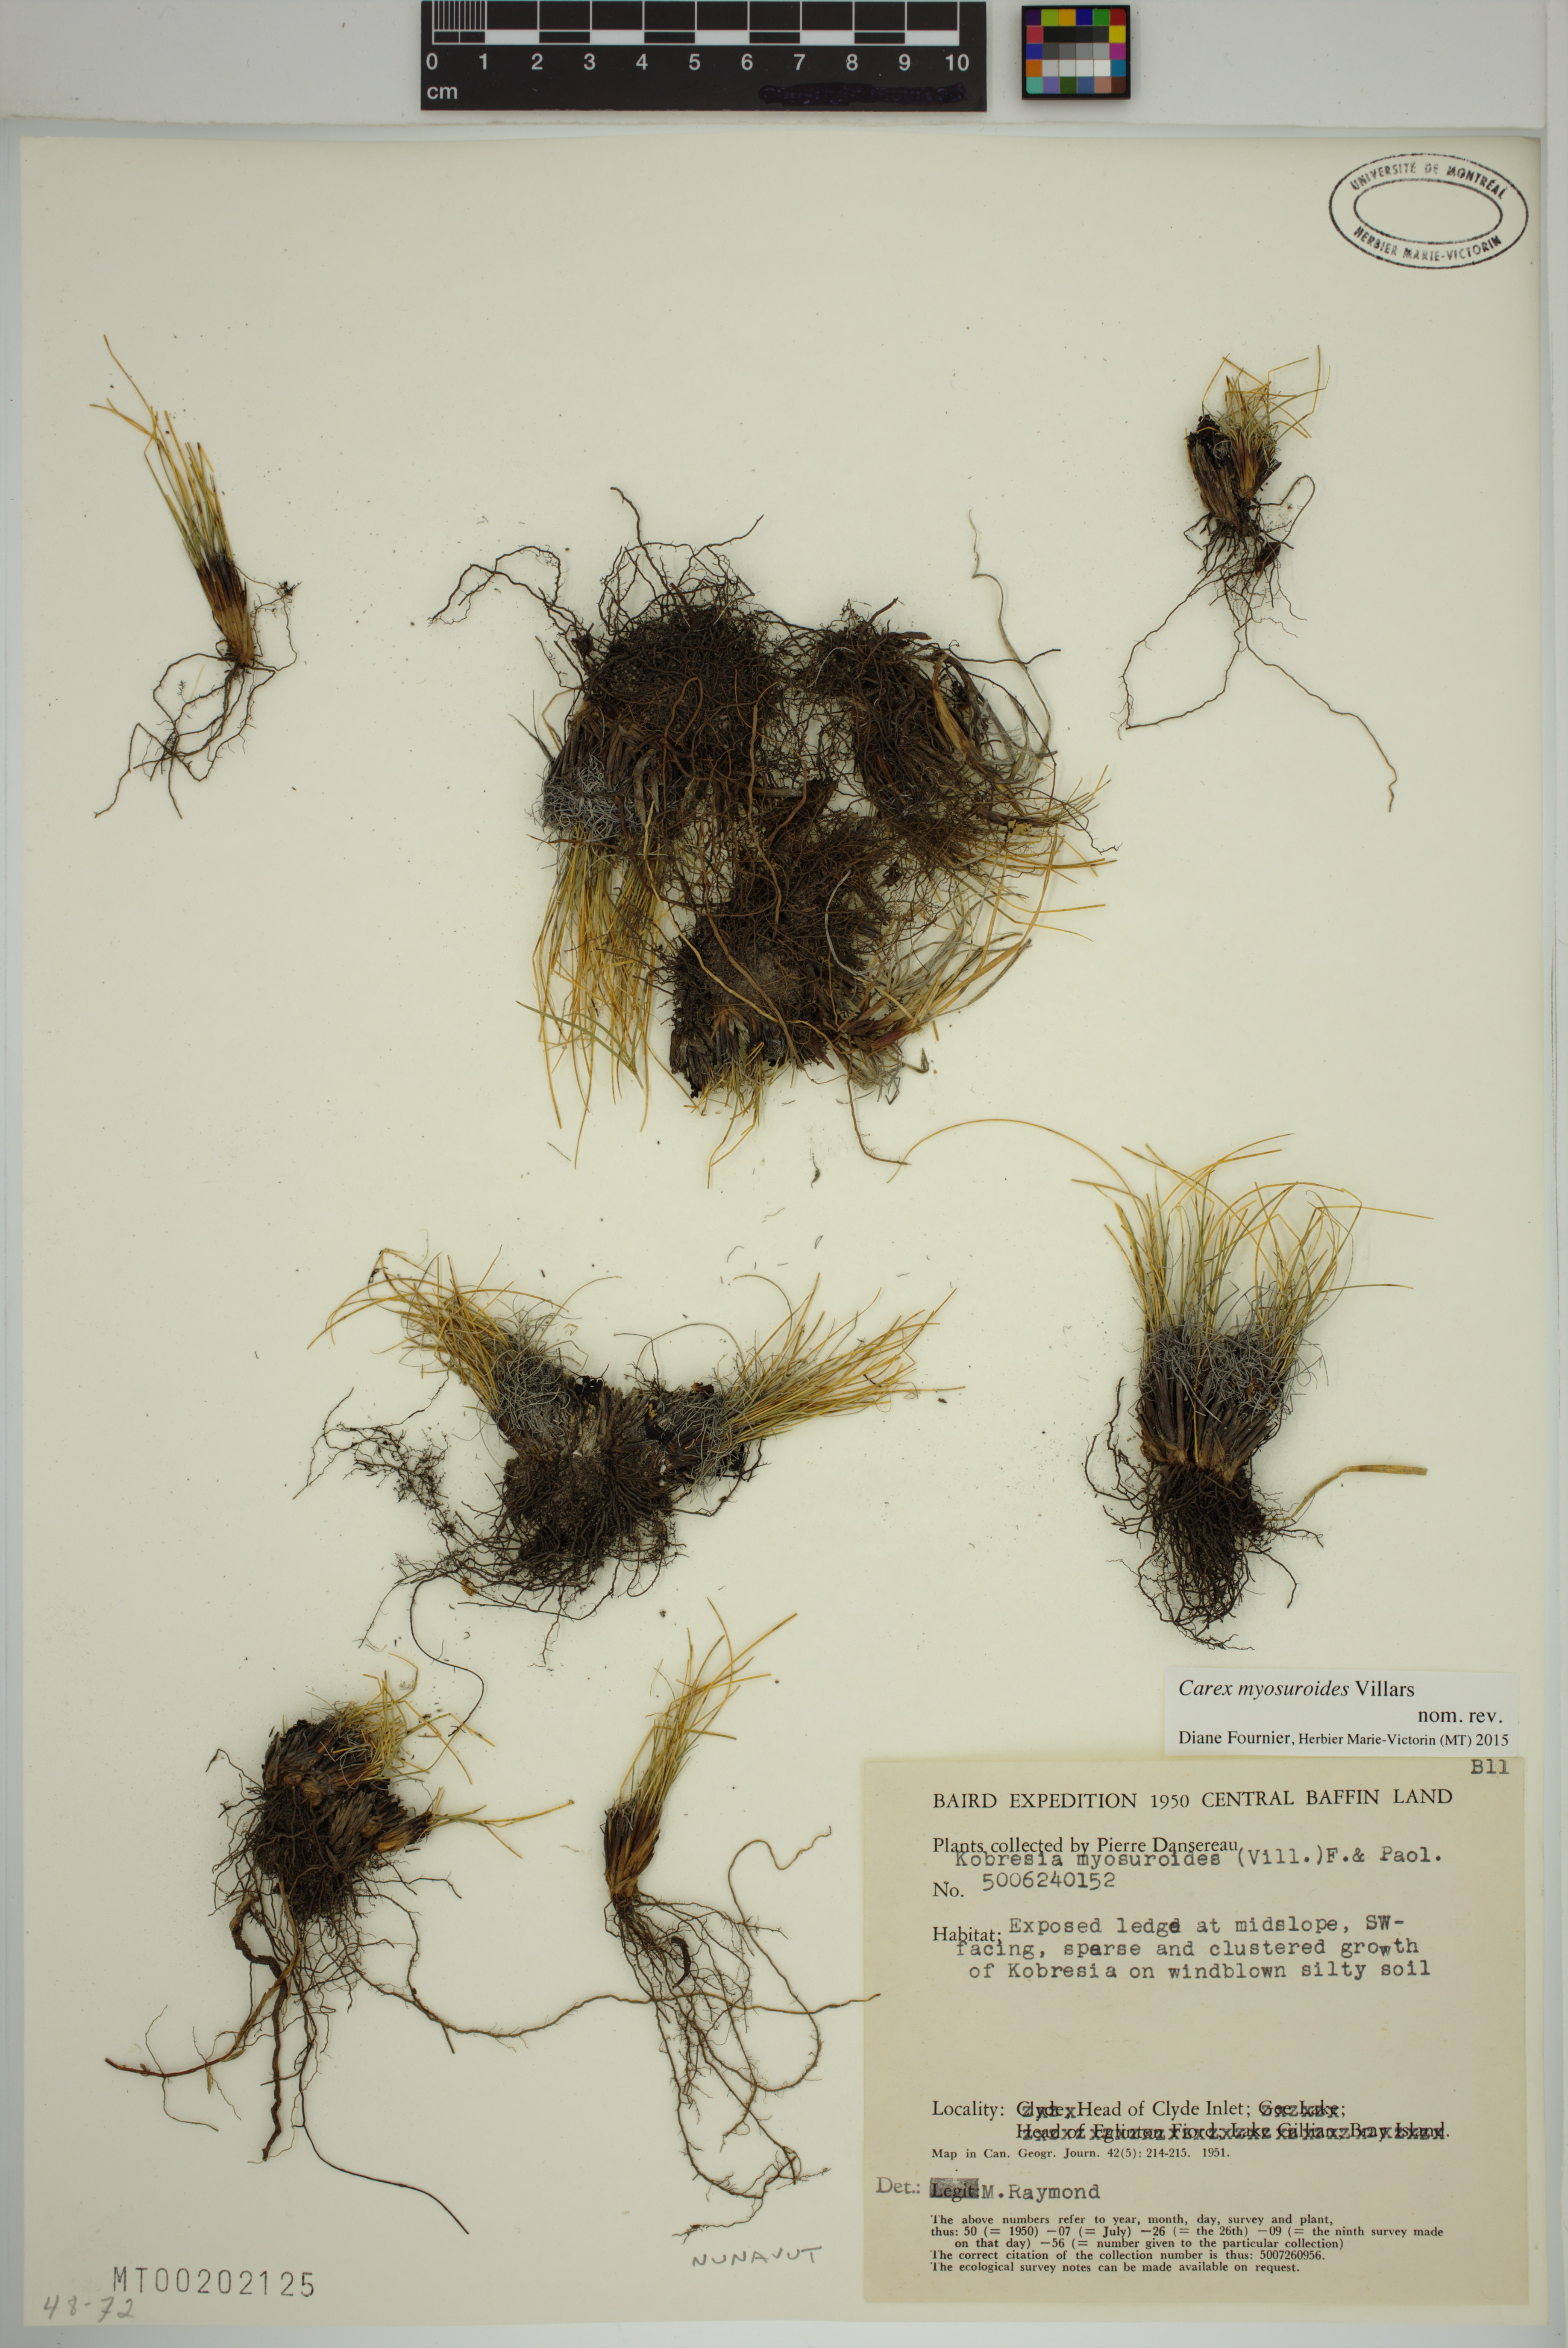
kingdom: Plantae
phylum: Tracheophyta
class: Liliopsida
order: Poales
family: Cyperaceae
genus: Carex
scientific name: Carex myosuroides
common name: Bellard's bog sedge
